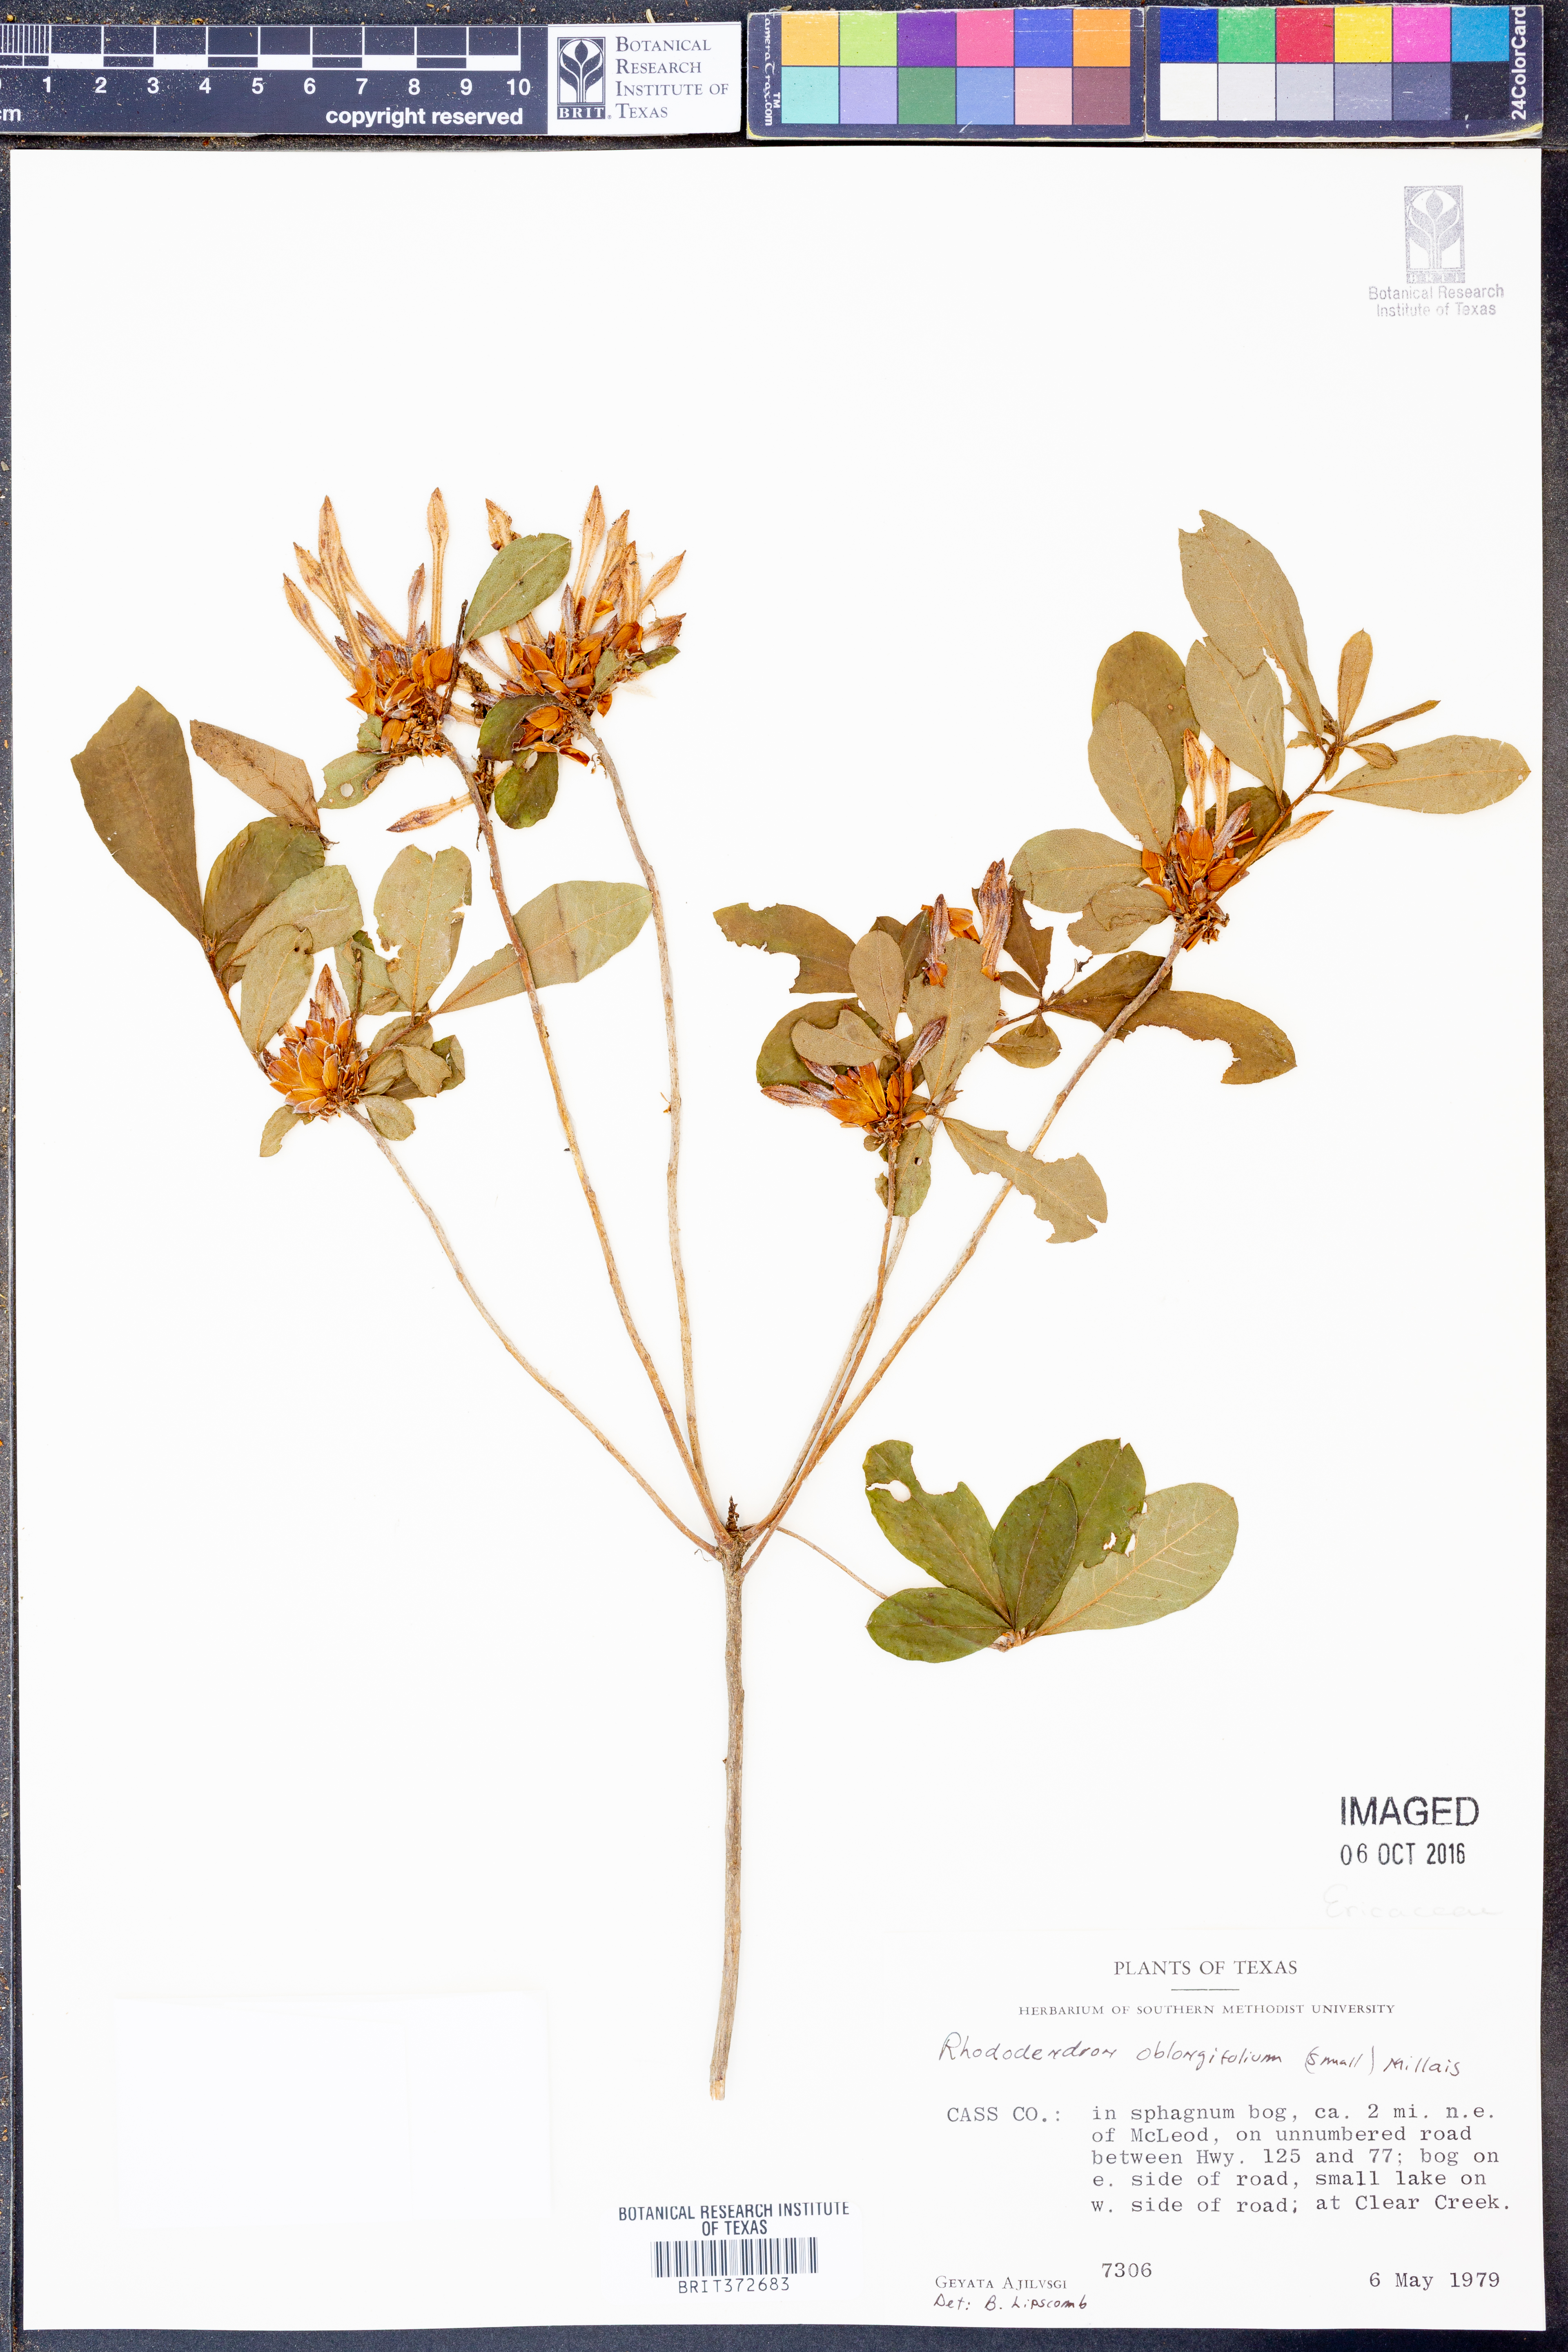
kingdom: Plantae
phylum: Tracheophyta
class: Magnoliopsida
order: Ericales
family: Ericaceae
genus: Rhododendron
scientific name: Rhododendron viscosum
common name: Clammy azalea
